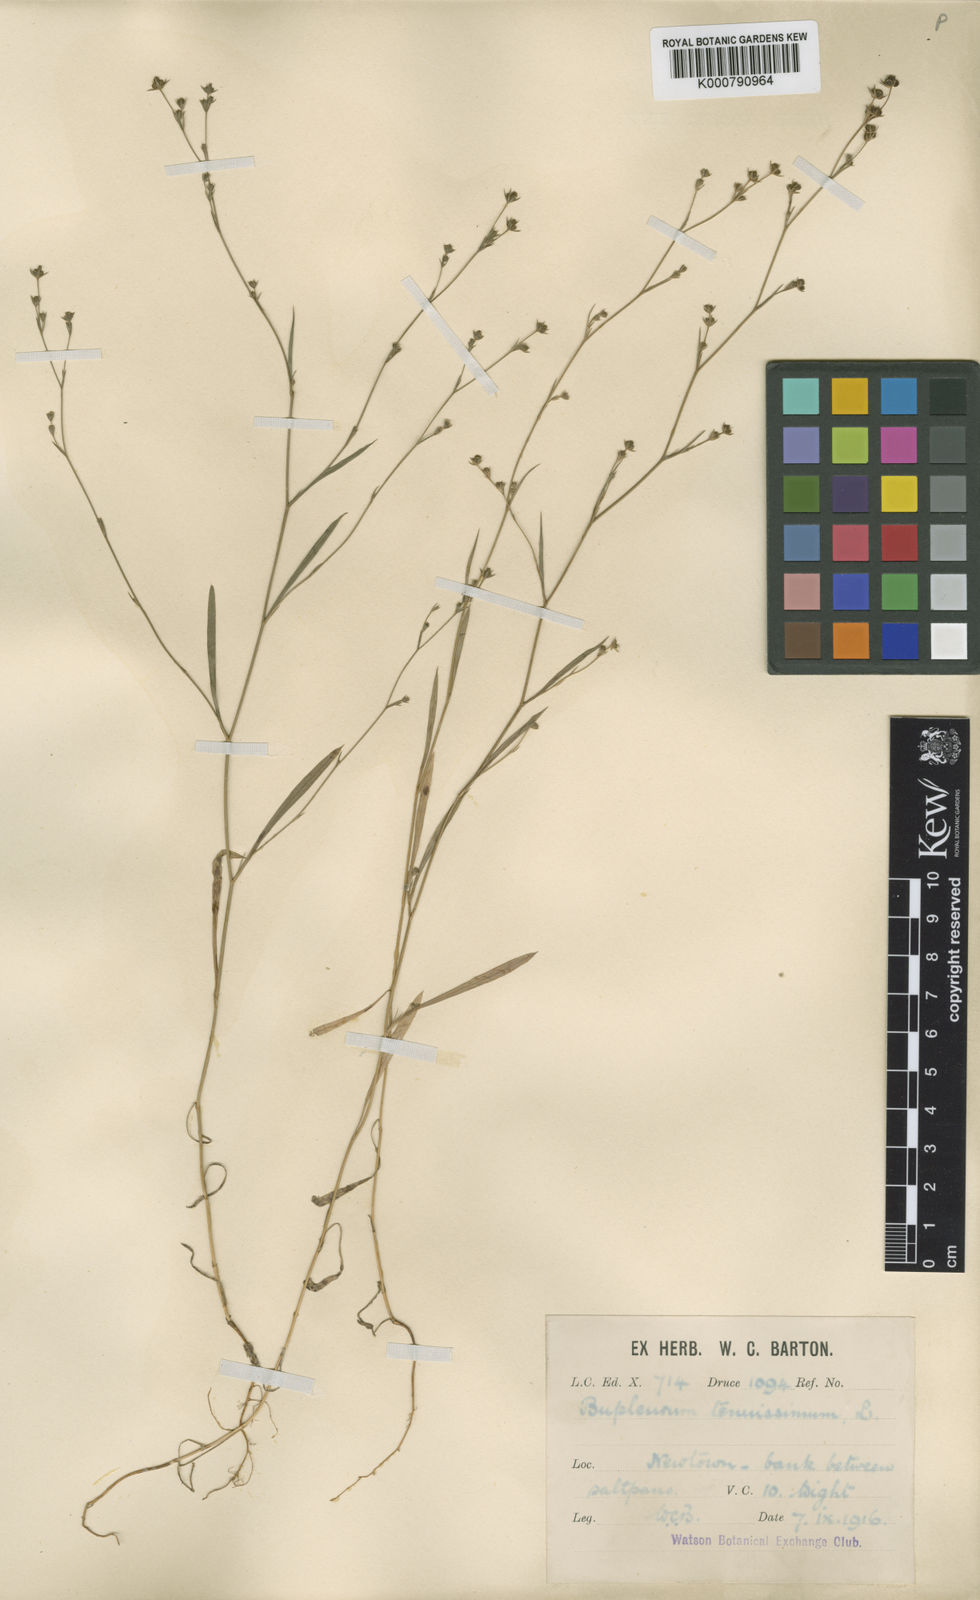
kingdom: Plantae
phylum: Tracheophyta
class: Magnoliopsida
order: Apiales
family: Apiaceae
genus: Bupleurum
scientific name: Bupleurum tenuissimum
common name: Slender hare's-ear
